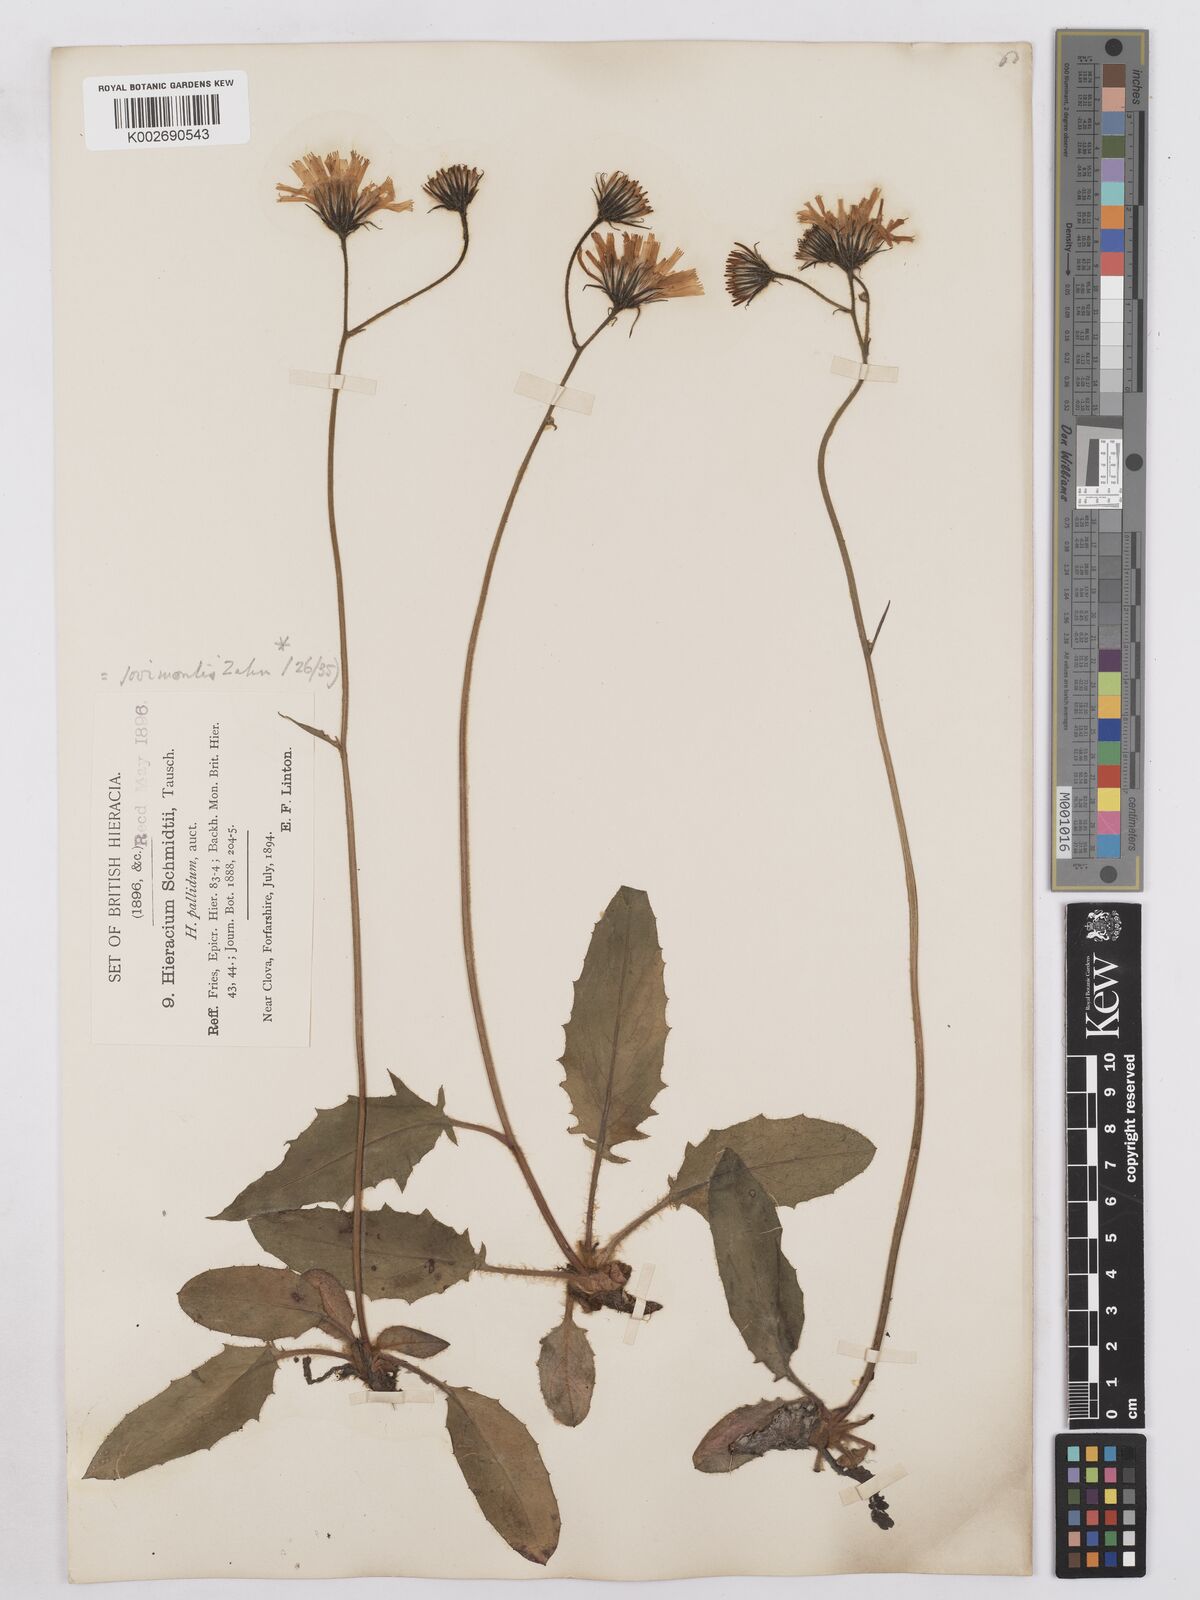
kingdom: Plantae
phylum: Tracheophyta
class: Magnoliopsida
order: Asterales
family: Asteraceae
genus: Hieracium
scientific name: Hieracium schmidtii
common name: Schmidt's hawkweed
